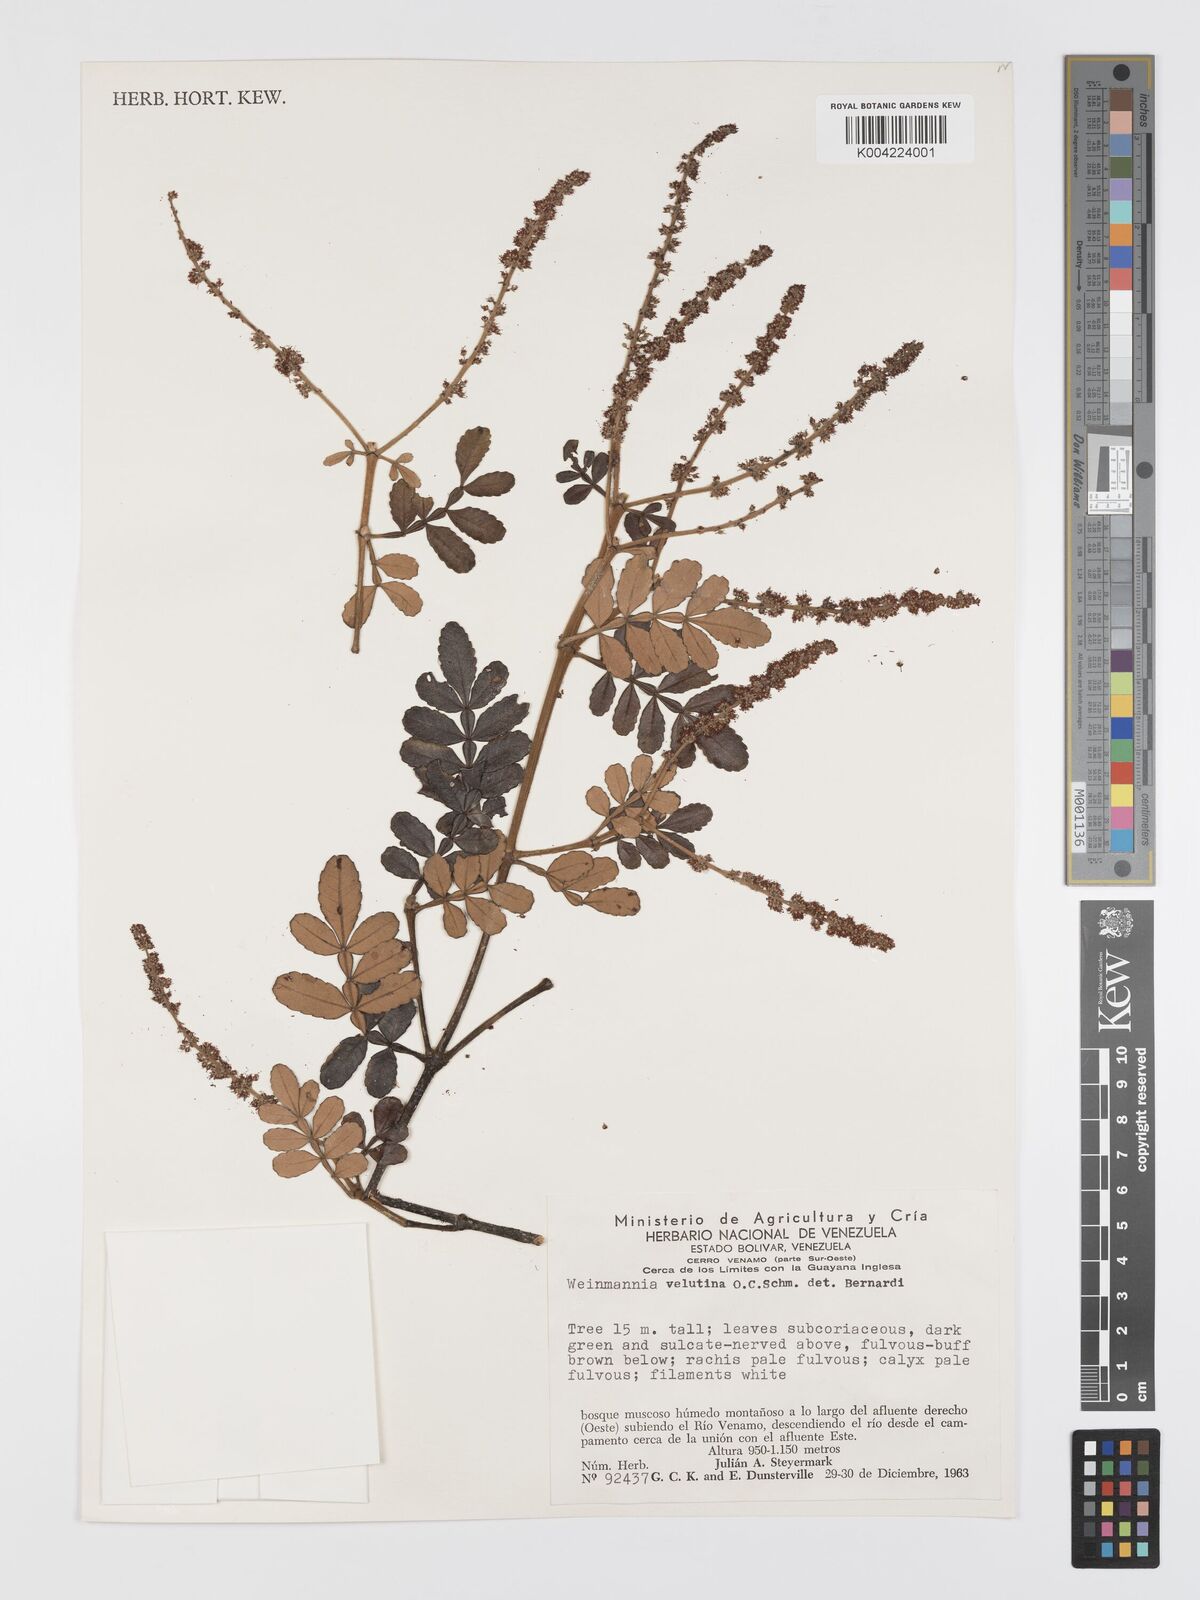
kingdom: Plantae
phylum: Tracheophyta
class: Magnoliopsida
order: Oxalidales
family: Cunoniaceae
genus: Weinmannia
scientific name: Weinmannia velutina
